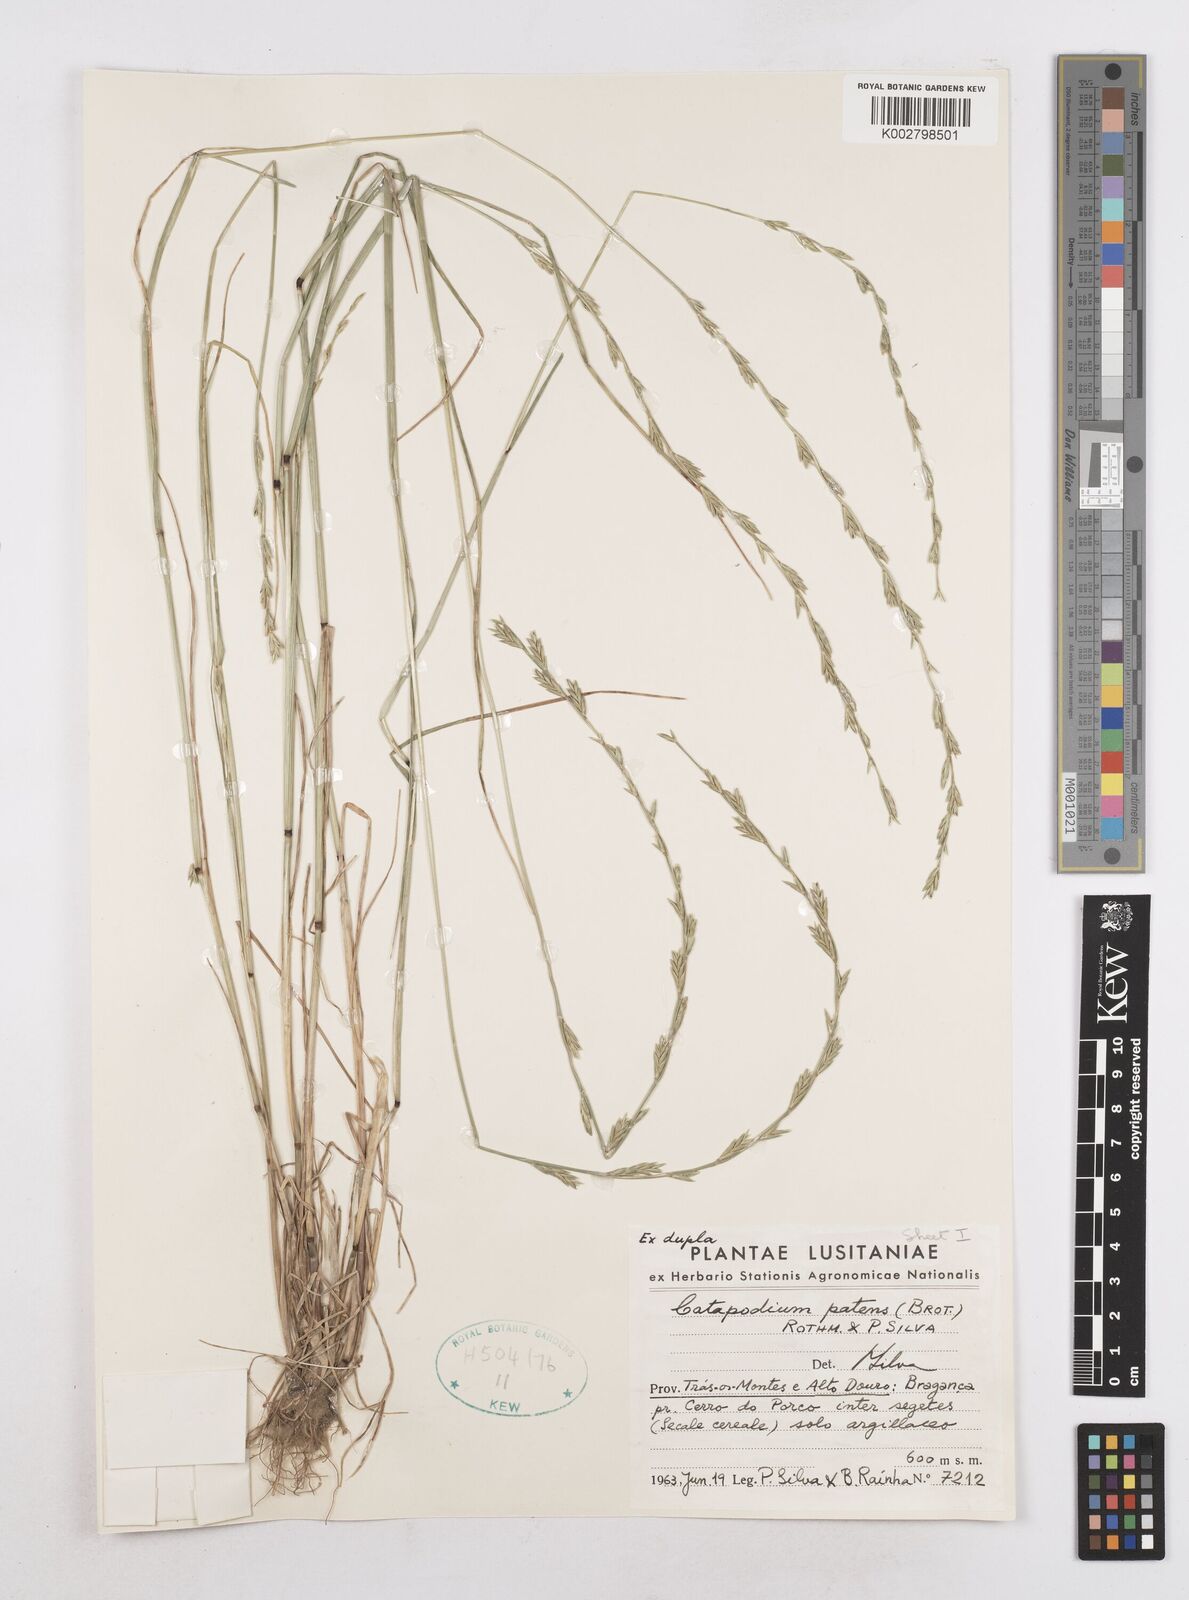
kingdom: Plantae
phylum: Tracheophyta
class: Liliopsida
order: Poales
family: Poaceae
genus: Festuca
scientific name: Festuca Micropyrum patens
